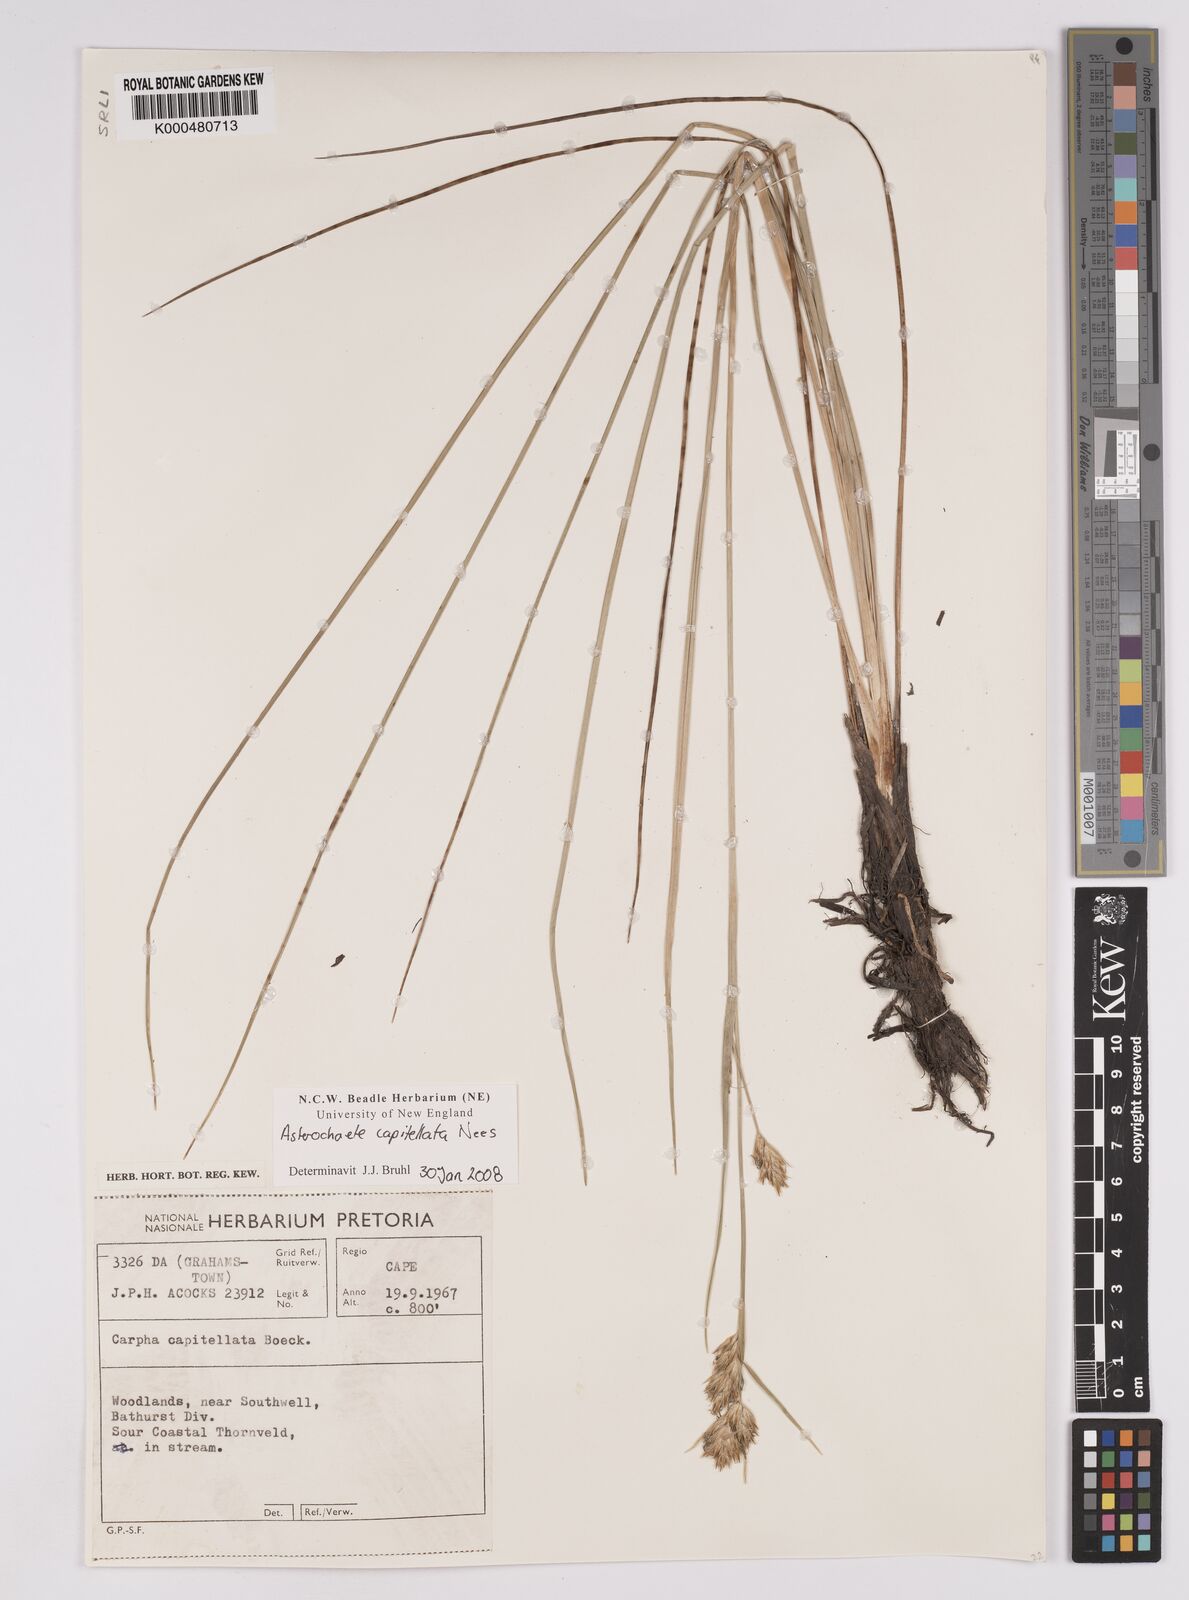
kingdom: Plantae
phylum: Tracheophyta
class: Liliopsida
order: Poales
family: Cyperaceae
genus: Carpha
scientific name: Carpha capitellata
